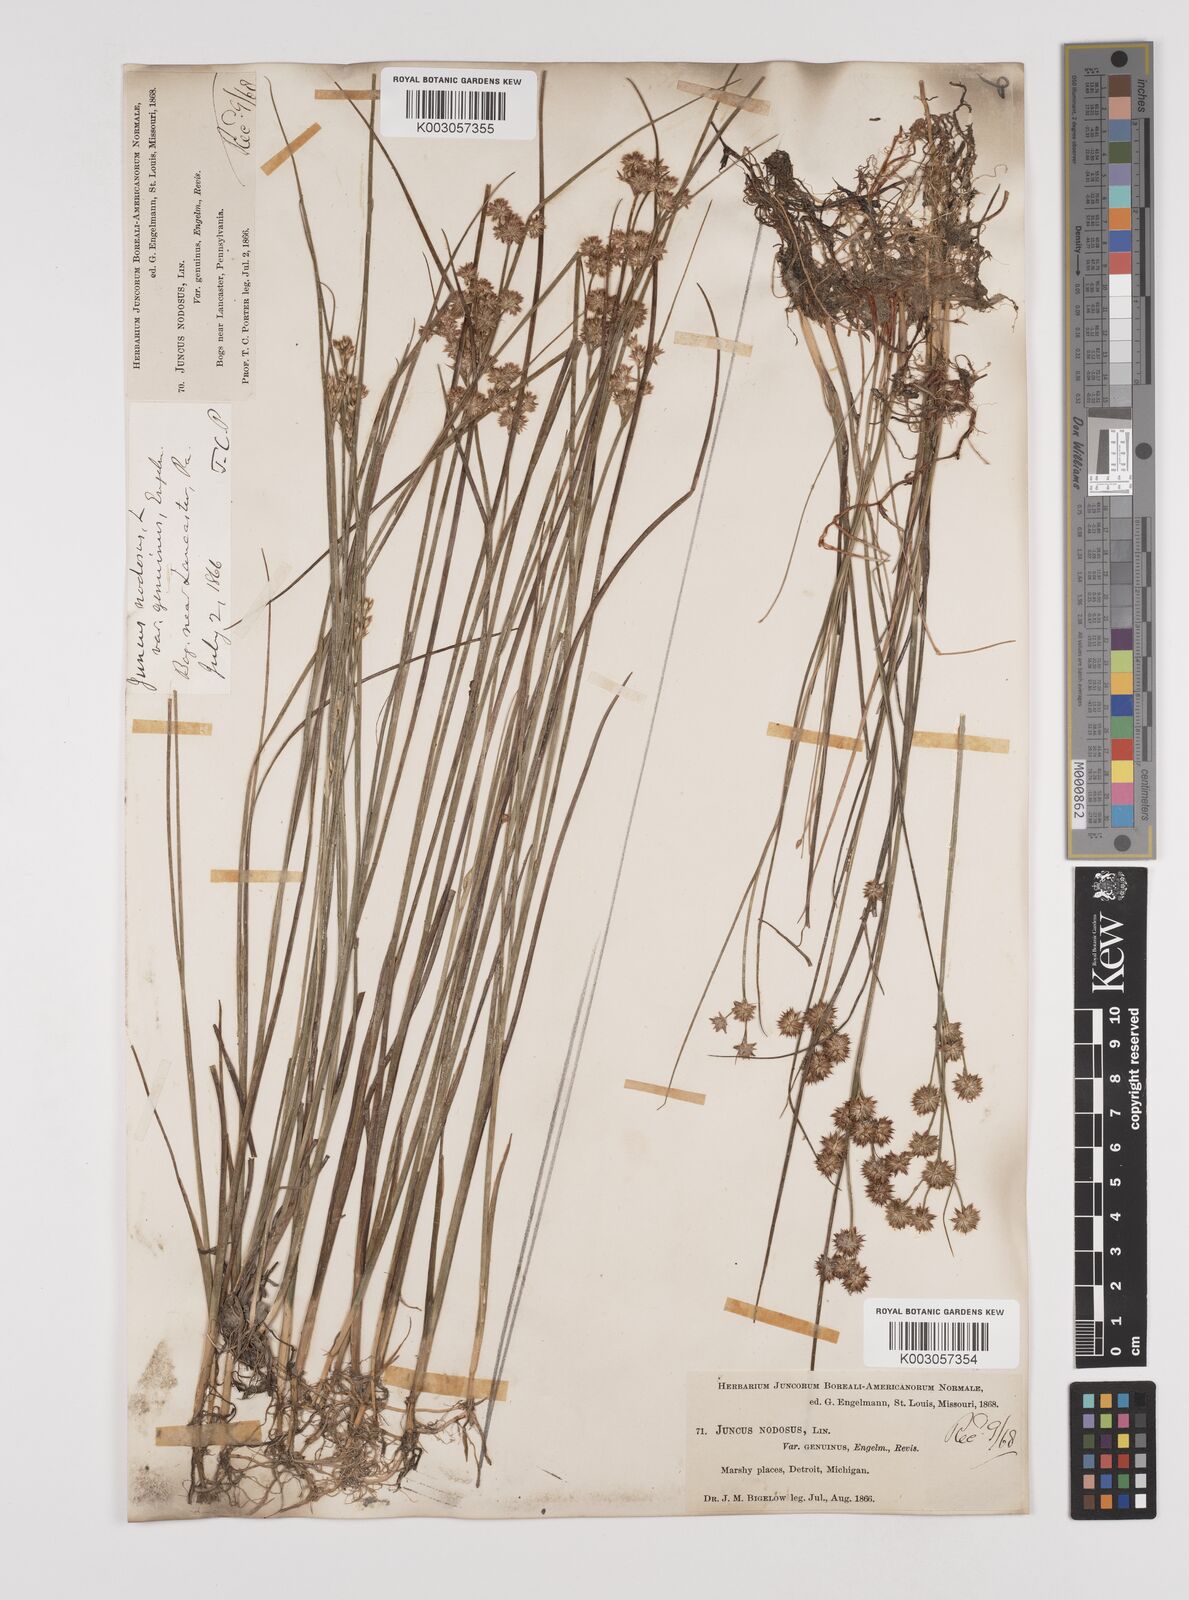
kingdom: Plantae
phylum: Tracheophyta
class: Liliopsida
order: Poales
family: Juncaceae
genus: Juncus
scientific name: Juncus nodosus
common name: Knotted rush
